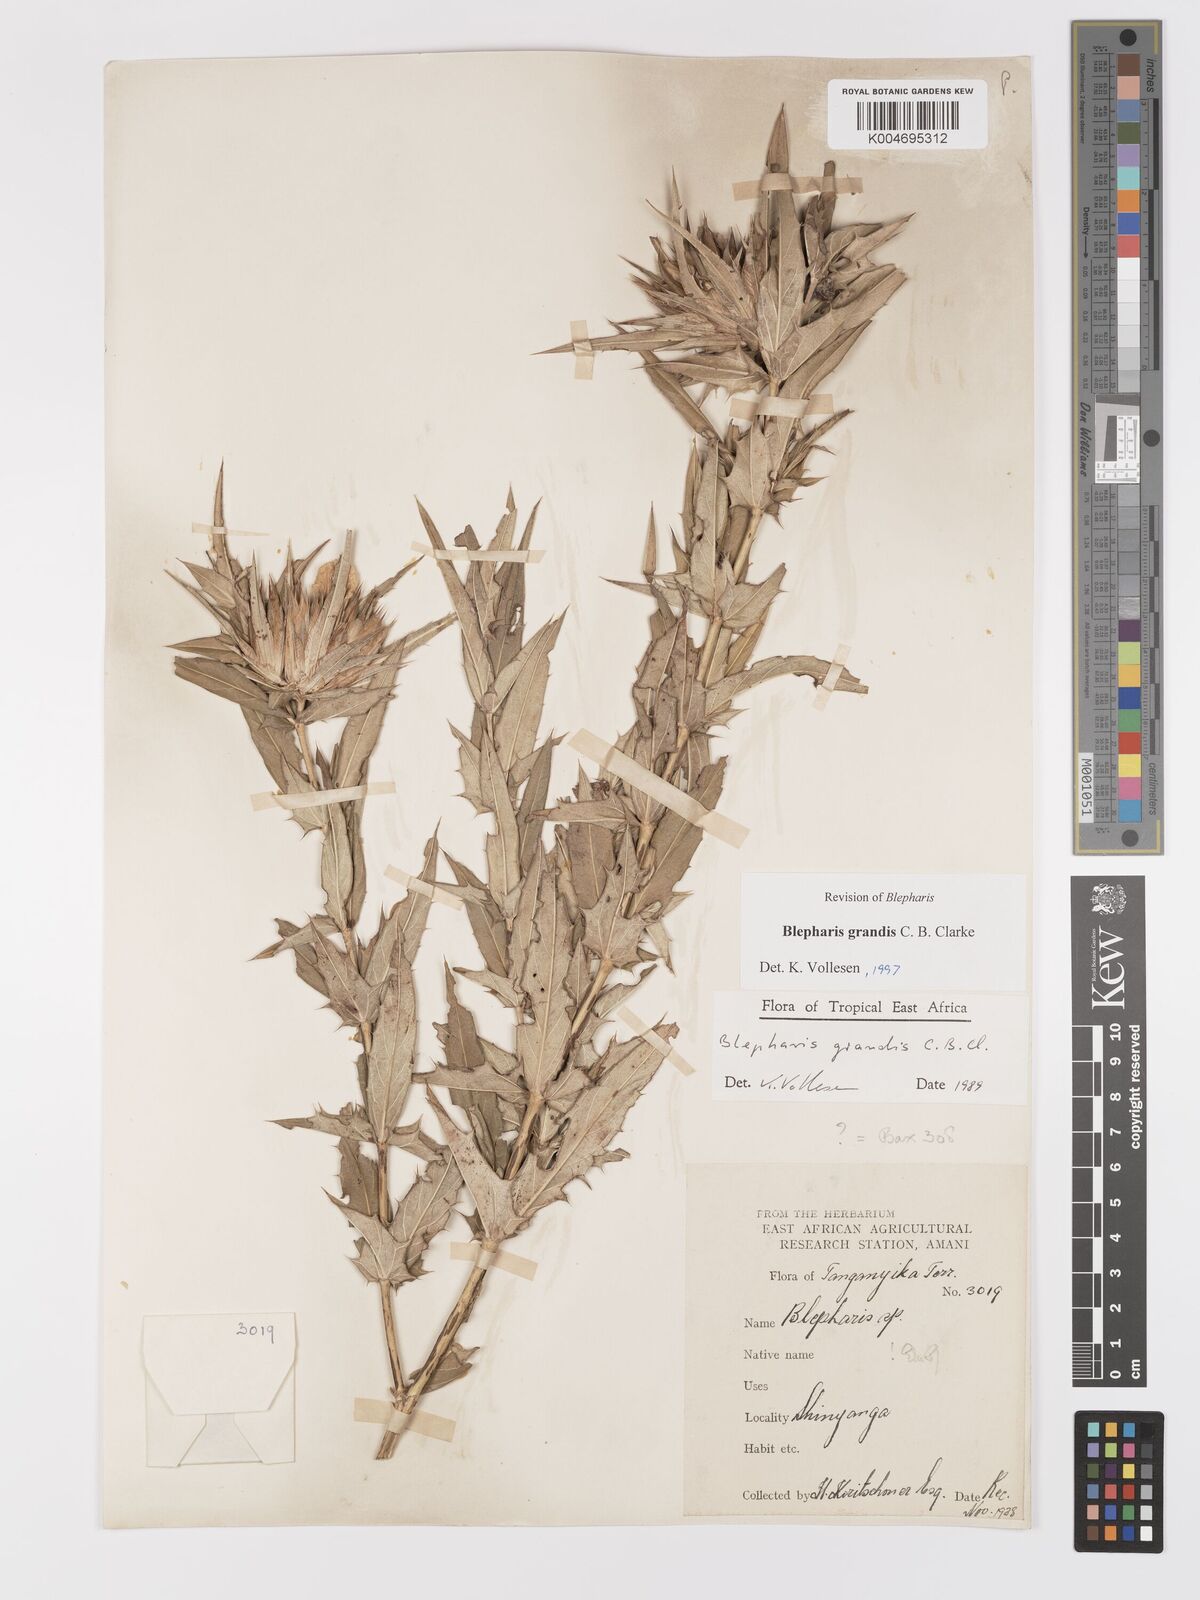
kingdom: Plantae
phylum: Tracheophyta
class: Magnoliopsida
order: Lamiales
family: Acanthaceae
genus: Blepharis
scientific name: Blepharis grandis
